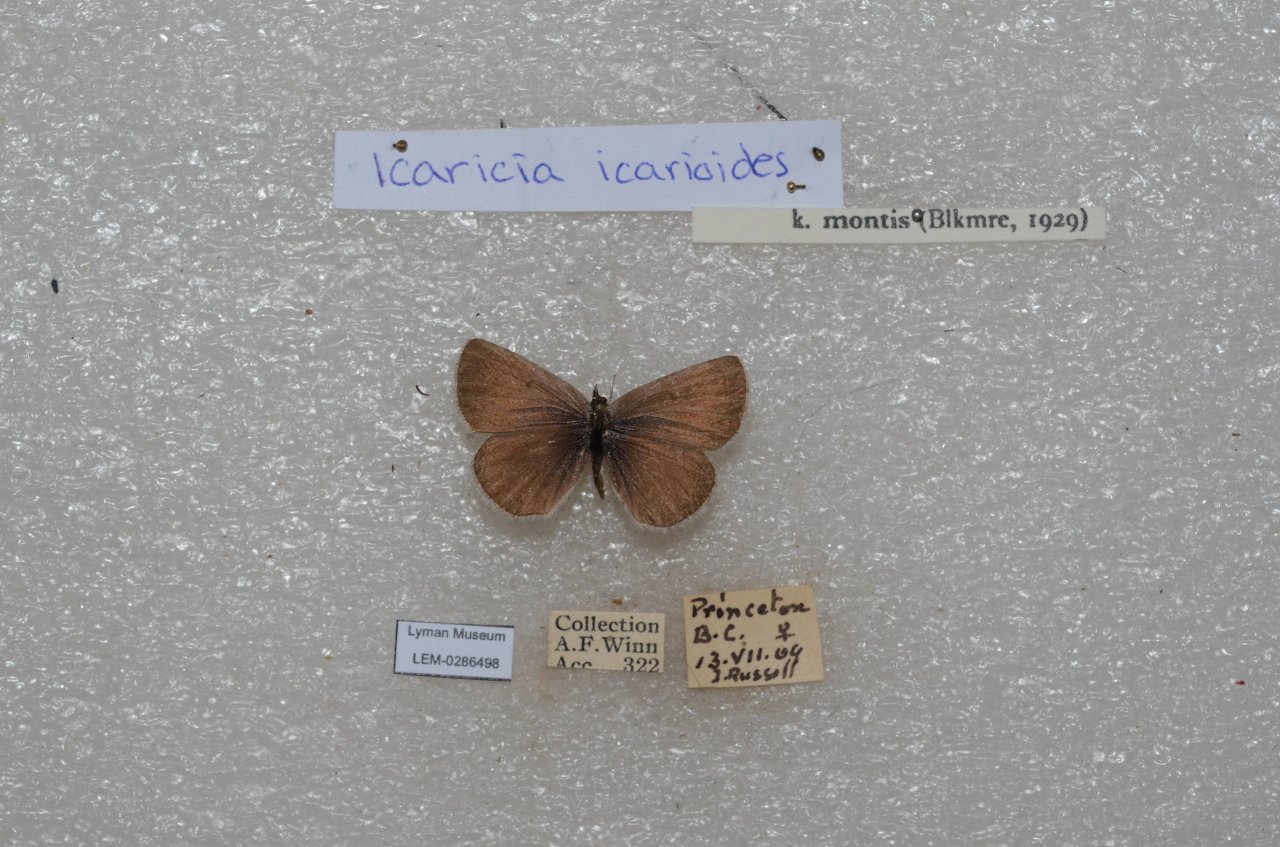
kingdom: Animalia
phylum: Arthropoda
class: Insecta
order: Lepidoptera
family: Lycaenidae
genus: Icaricia
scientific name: Icaricia icarioides
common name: Boisduval's Blue
